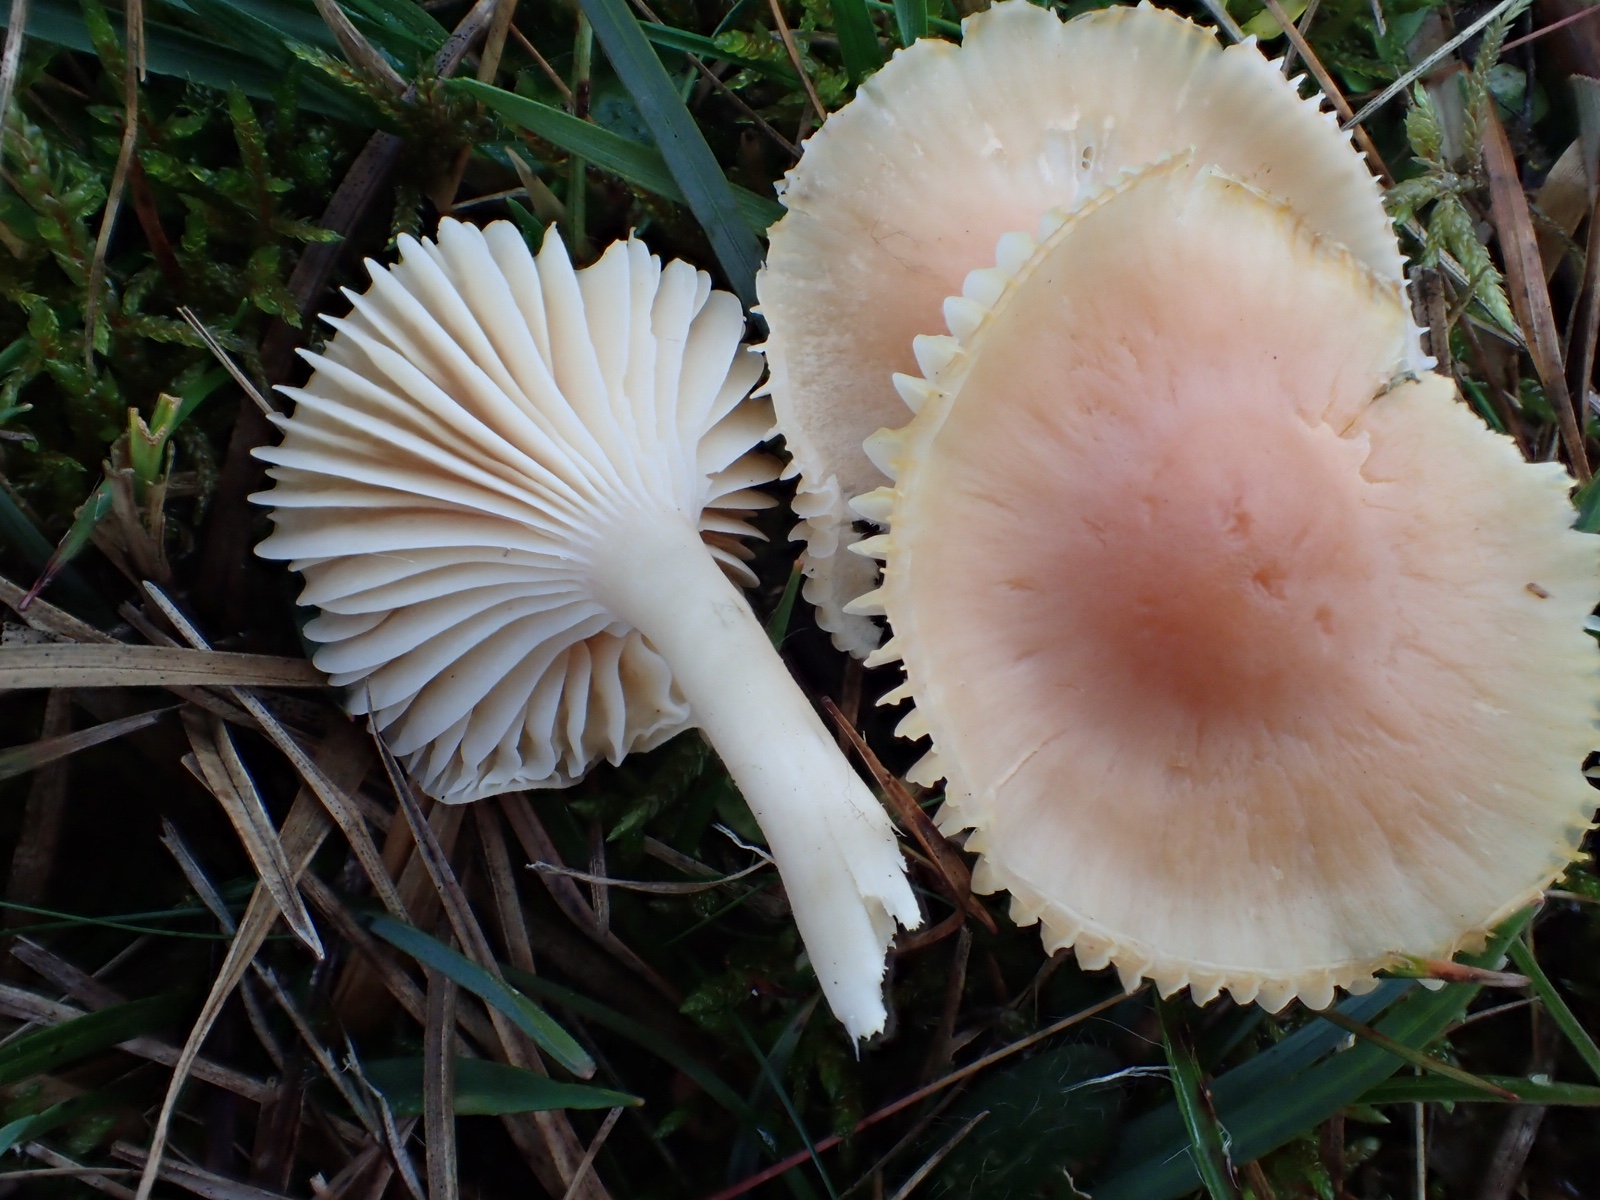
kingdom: Fungi
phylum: Basidiomycota
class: Agaricomycetes
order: Agaricales
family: Hygrophoraceae
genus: Cuphophyllus
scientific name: Cuphophyllus pratensis
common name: eng-vokshat
